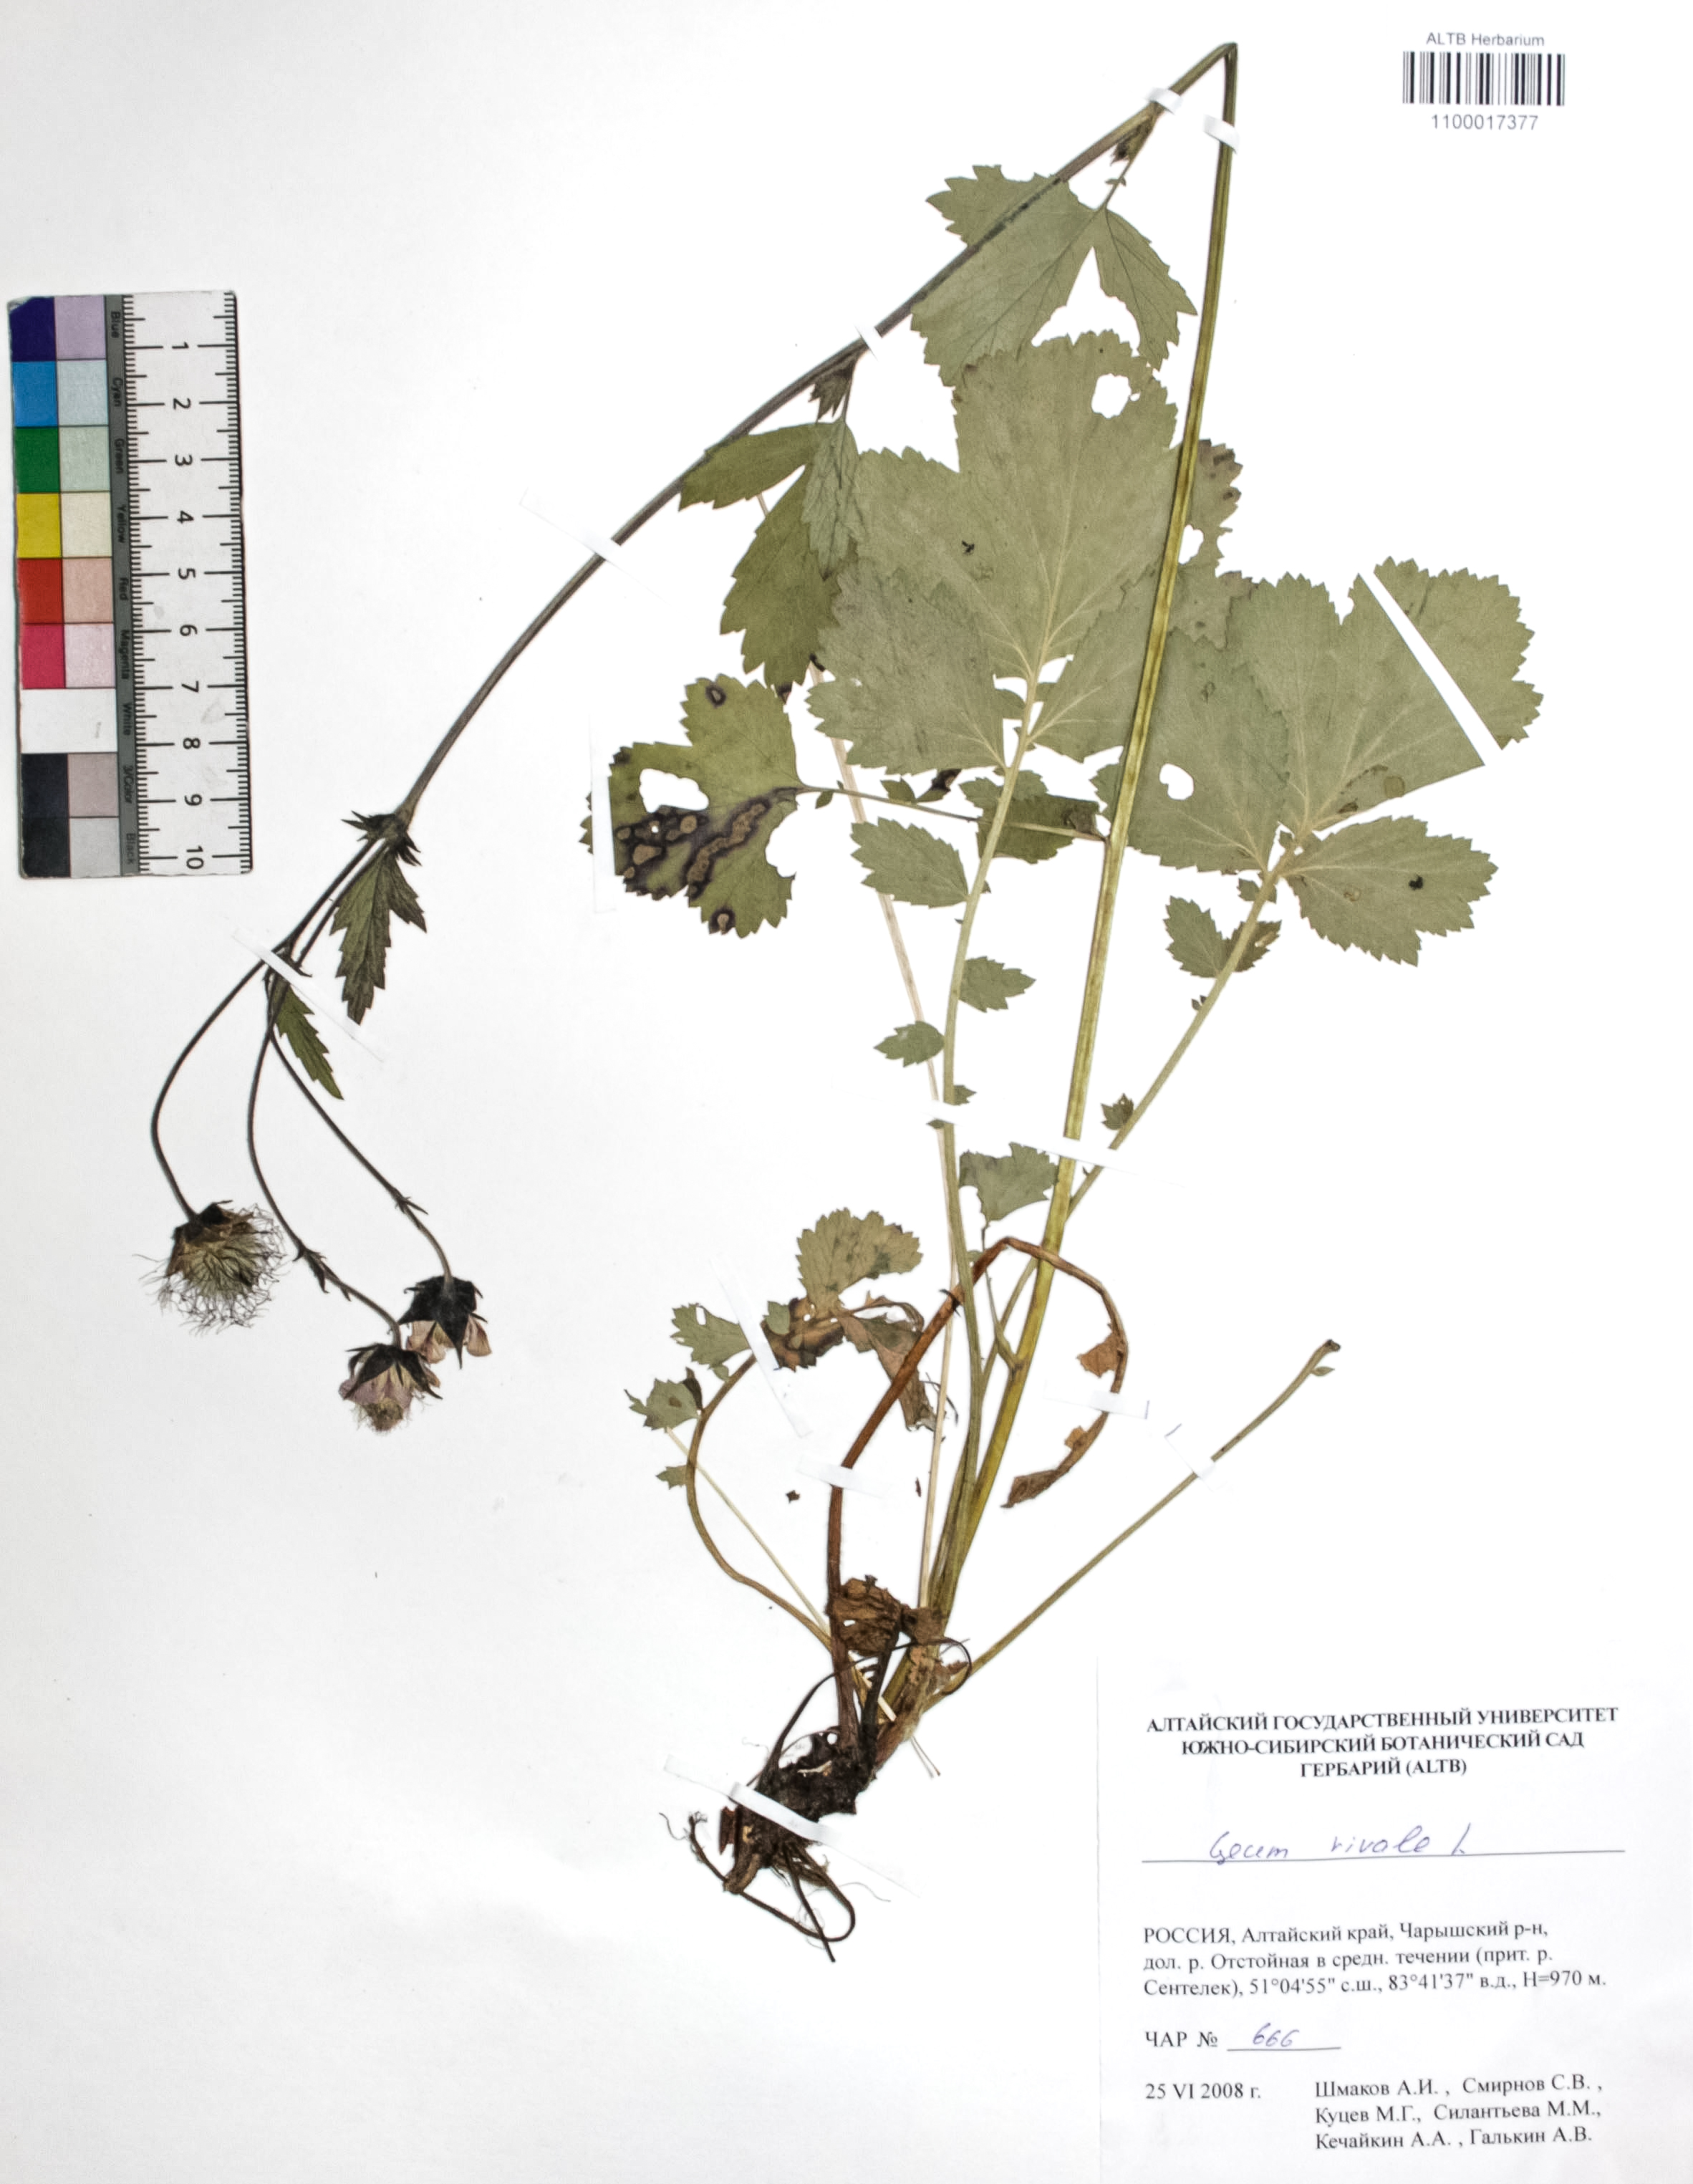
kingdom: Plantae
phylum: Tracheophyta
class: Magnoliopsida
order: Rosales
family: Rosaceae
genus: Geum
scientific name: Geum rivale
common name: Water avens
